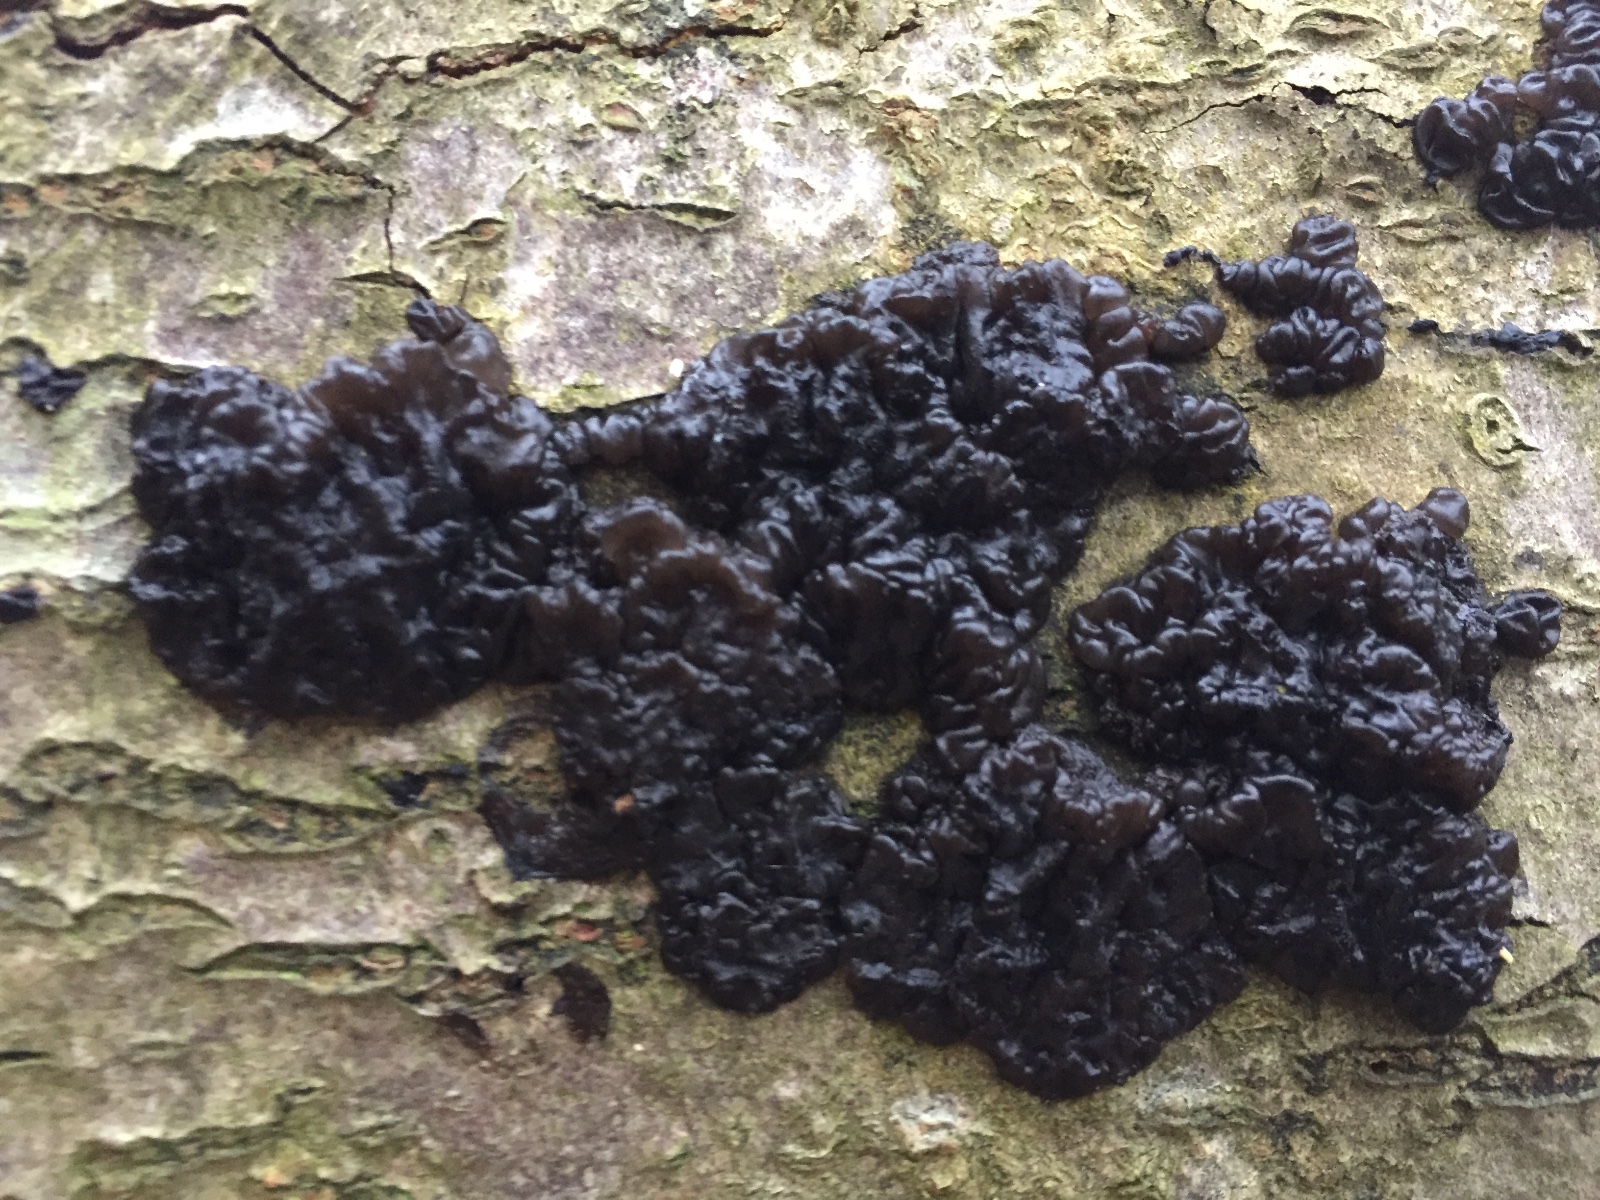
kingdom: Fungi
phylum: Basidiomycota
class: Agaricomycetes
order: Auriculariales
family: Auriculariaceae
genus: Exidia
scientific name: Exidia nigricans
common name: almindelig bævretop
